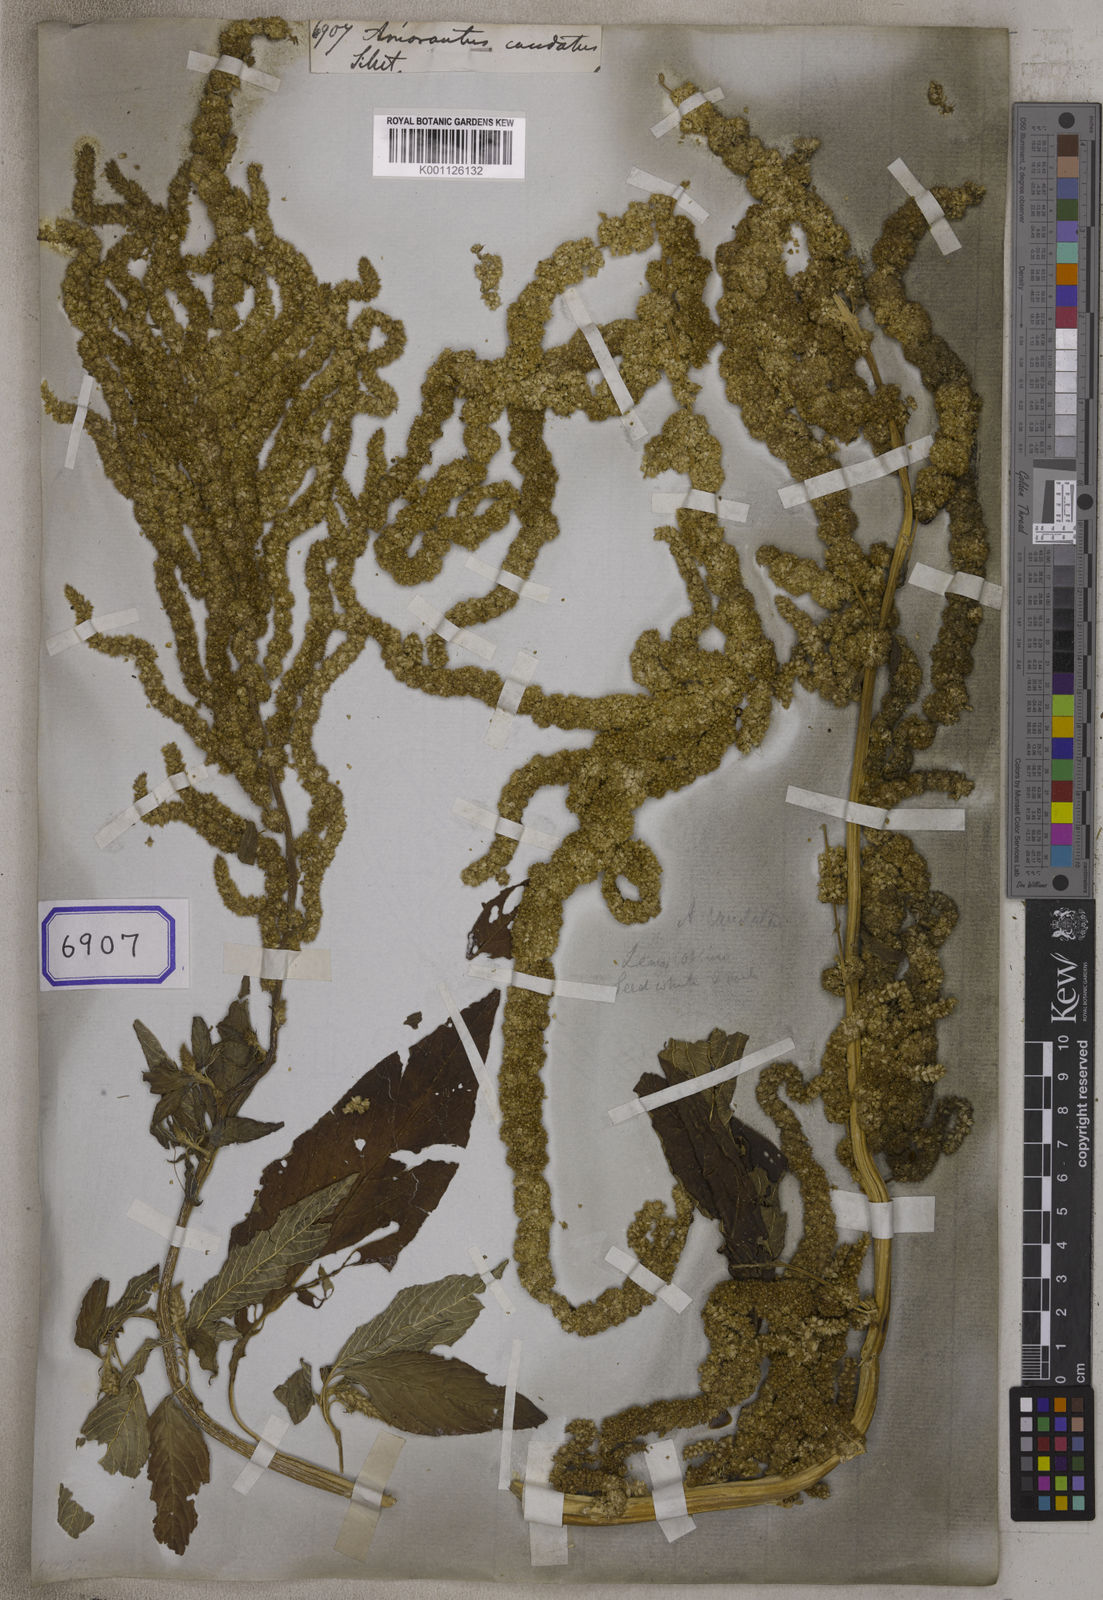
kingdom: Plantae
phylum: Tracheophyta
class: Magnoliopsida
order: Caryophyllales
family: Amaranthaceae
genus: Amaranthus
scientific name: Amaranthus caudatus
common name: Love-lies-bleeding
